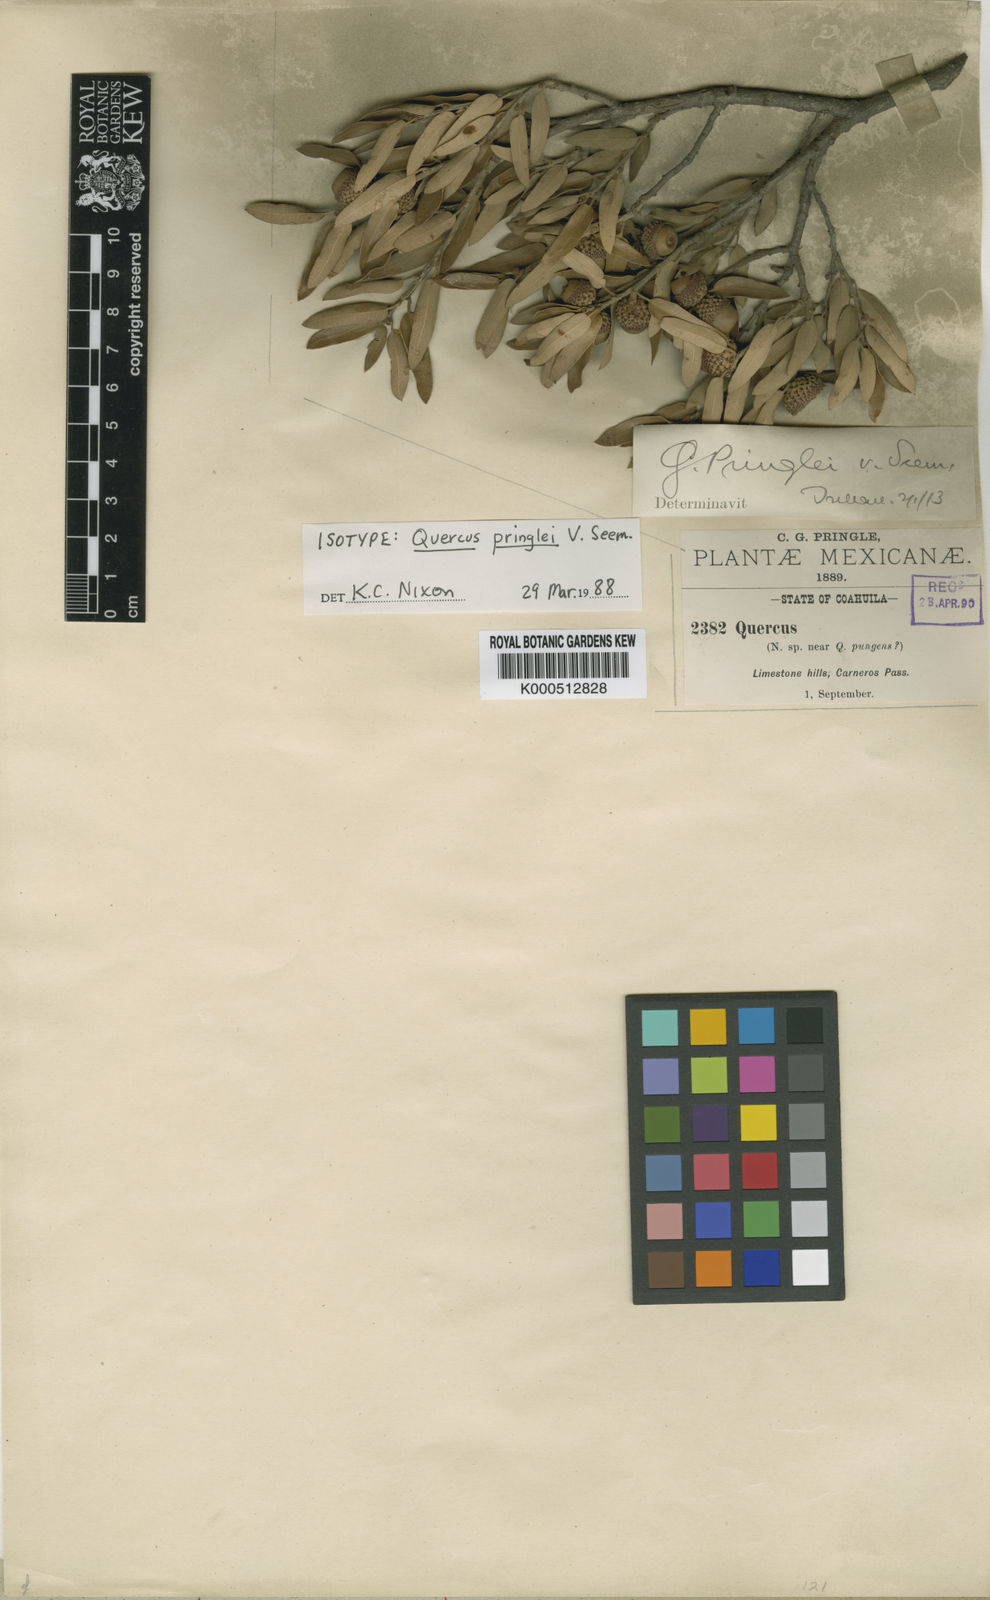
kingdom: Plantae
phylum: Tracheophyta
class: Magnoliopsida
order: Fagales
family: Fagaceae
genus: Quercus
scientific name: Quercus
